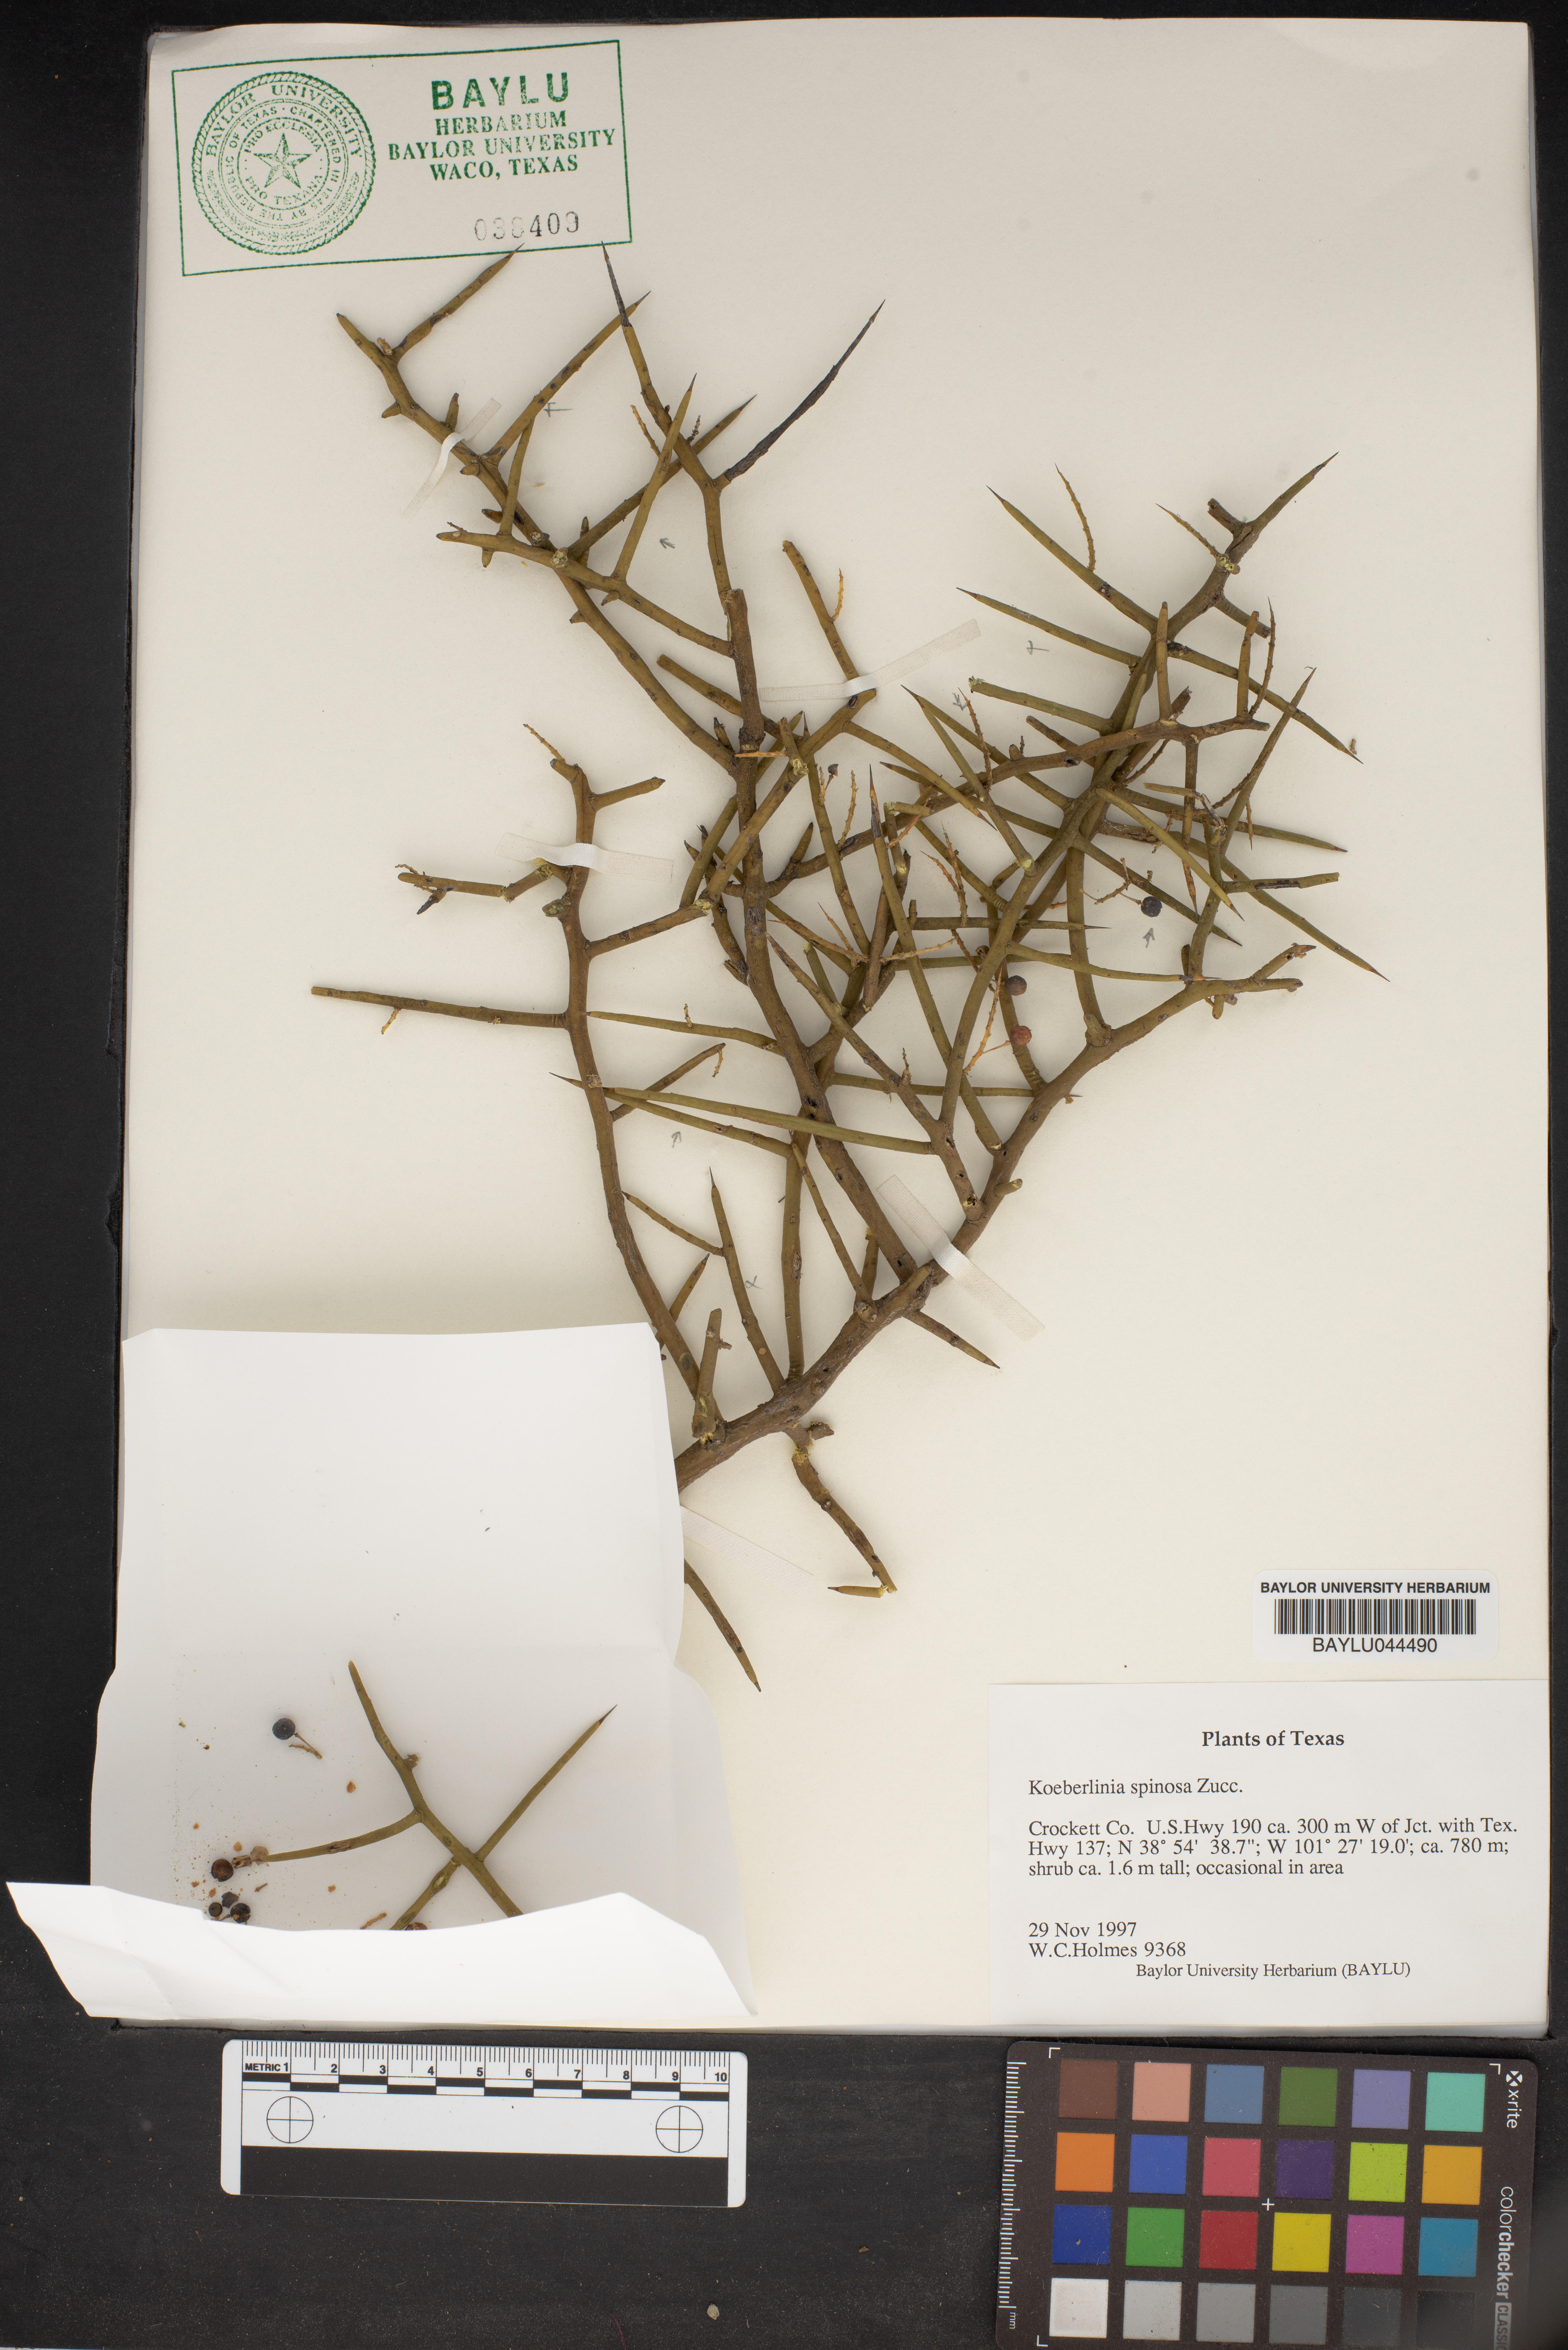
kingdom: Plantae
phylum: Tracheophyta
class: Magnoliopsida
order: Brassicales
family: Koeberliniaceae
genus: Koeberlinia
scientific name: Koeberlinia spinosa
